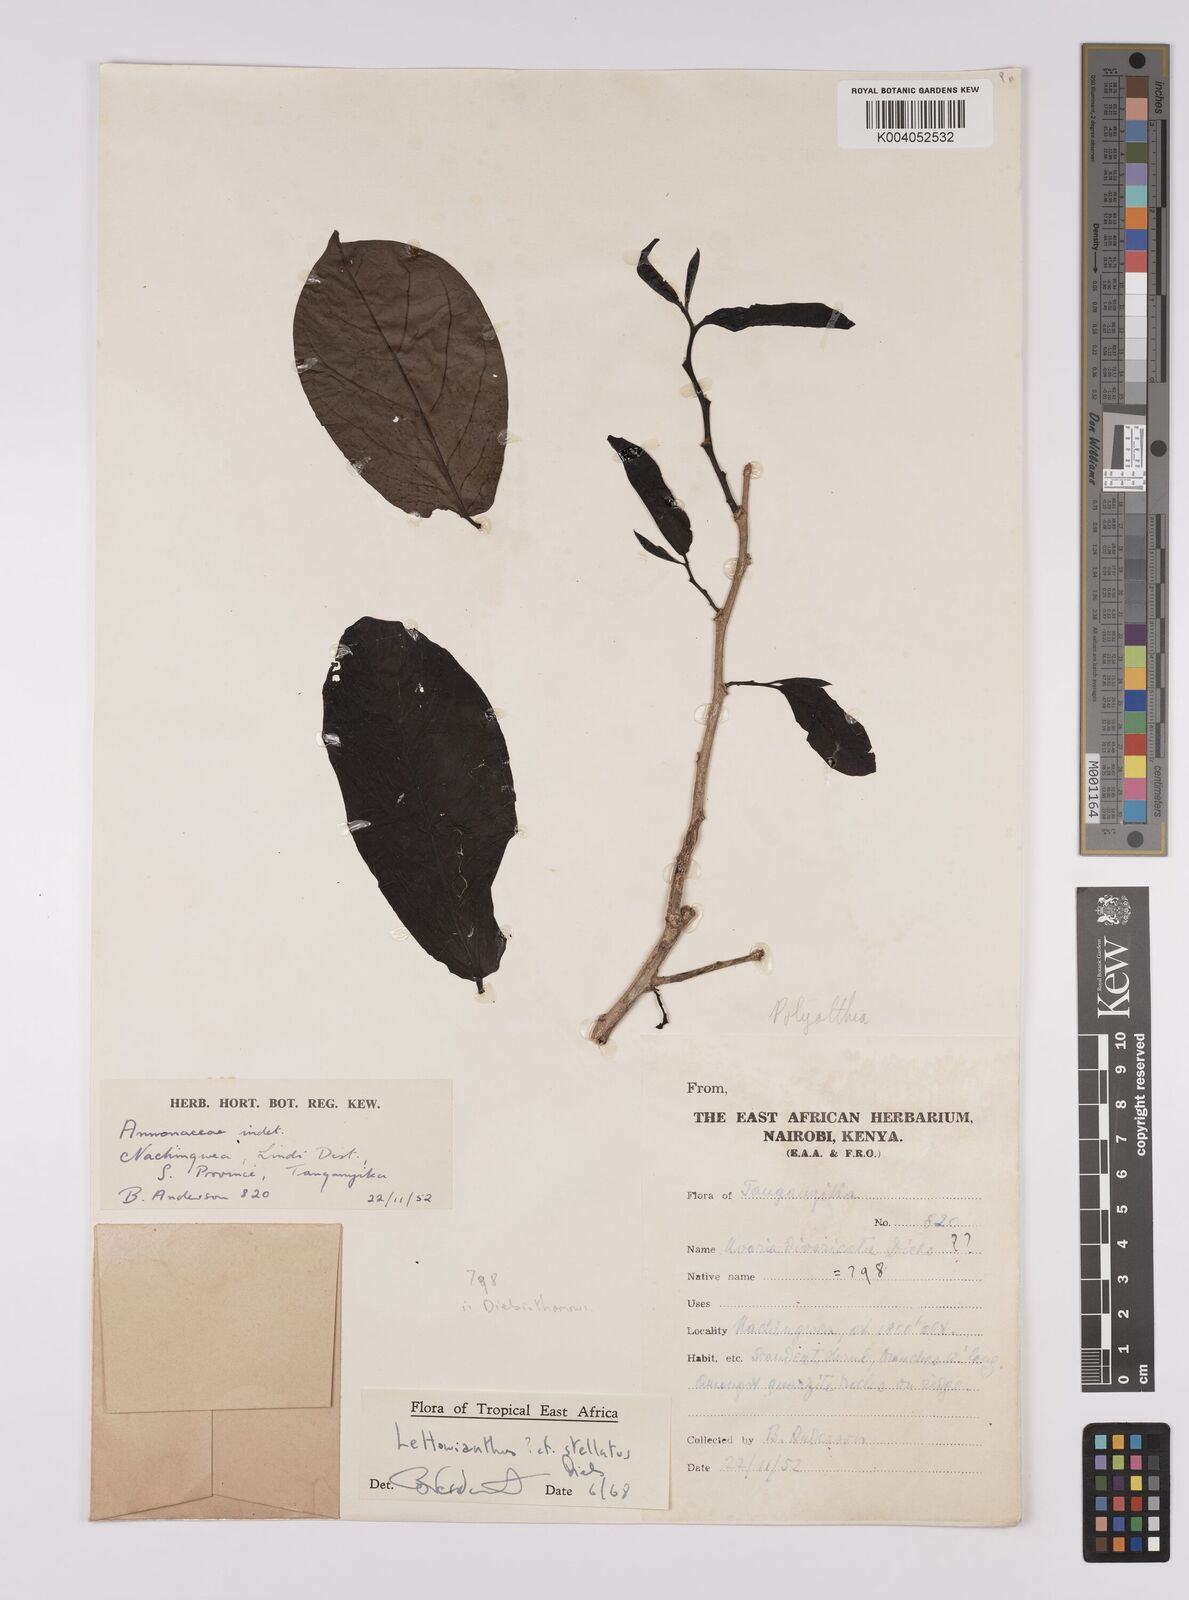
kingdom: Plantae
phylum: Tracheophyta
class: Magnoliopsida
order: Magnoliales
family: Annonaceae
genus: Lettowianthus
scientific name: Lettowianthus
